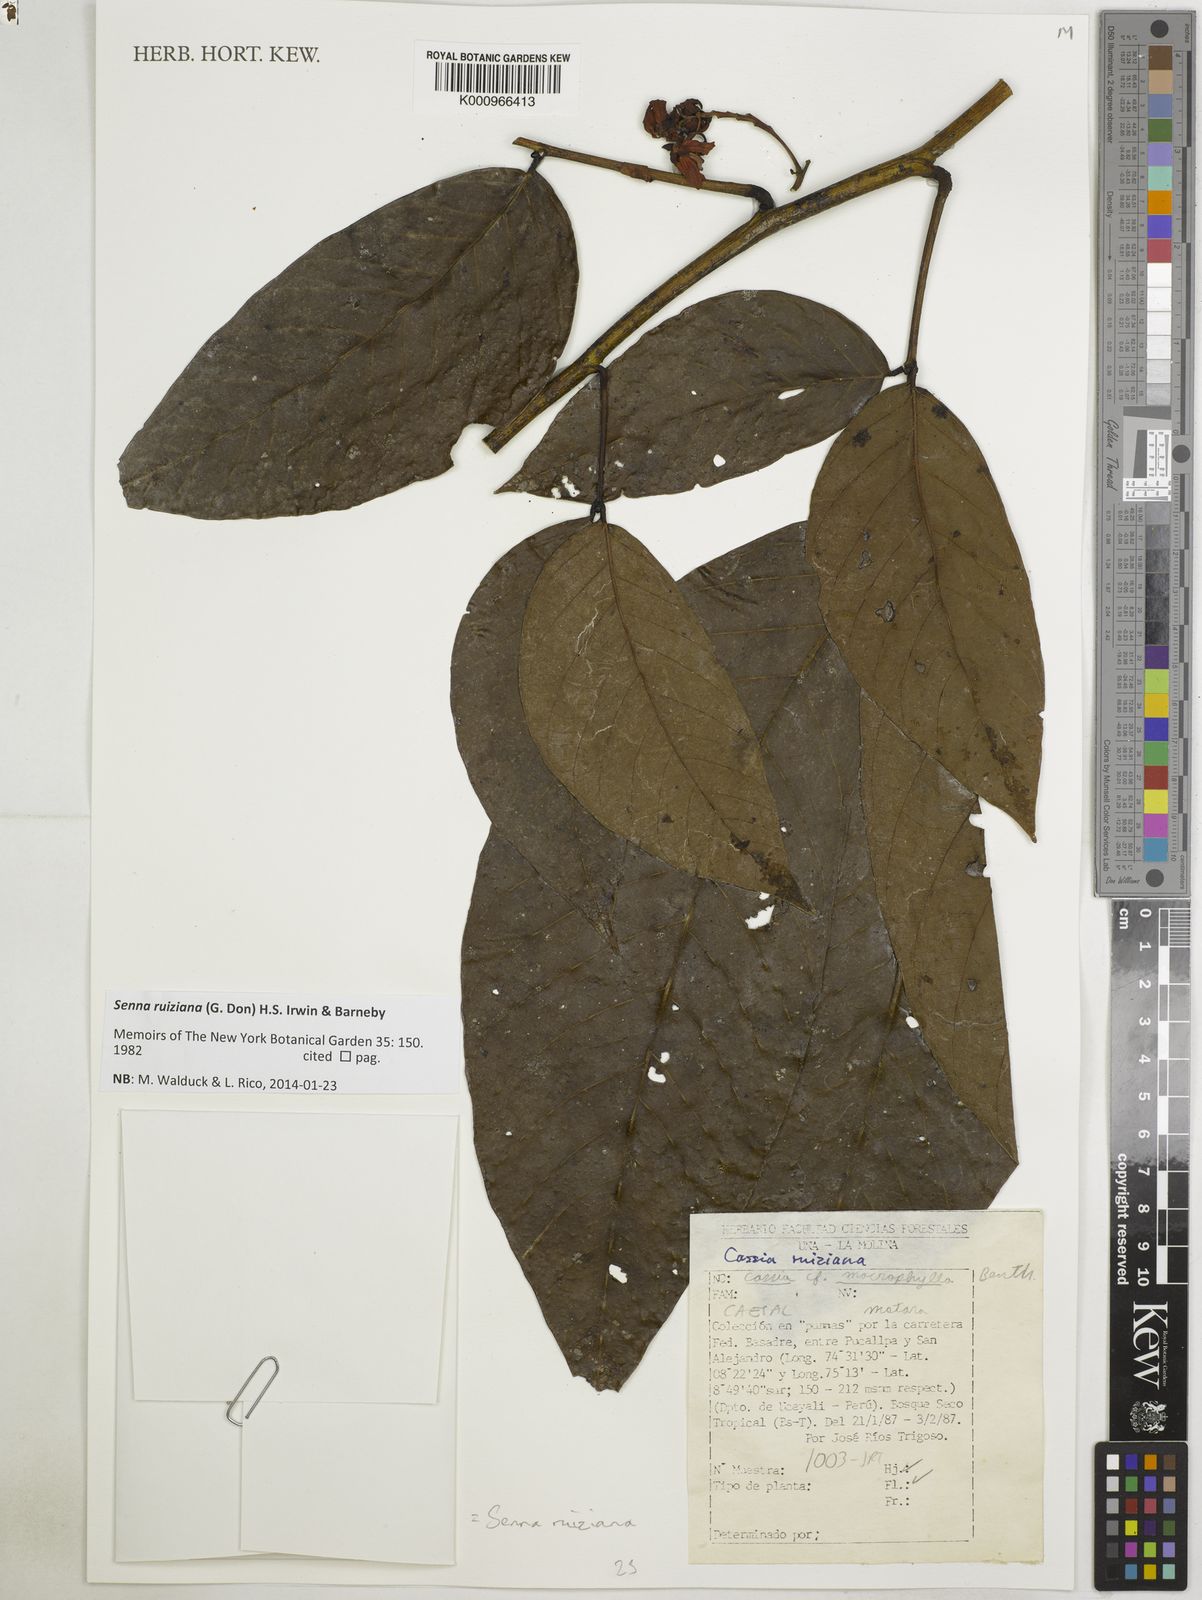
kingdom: Plantae
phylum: Tracheophyta
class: Magnoliopsida
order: Fabales
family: Fabaceae
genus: Senna
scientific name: Senna ruiziana
